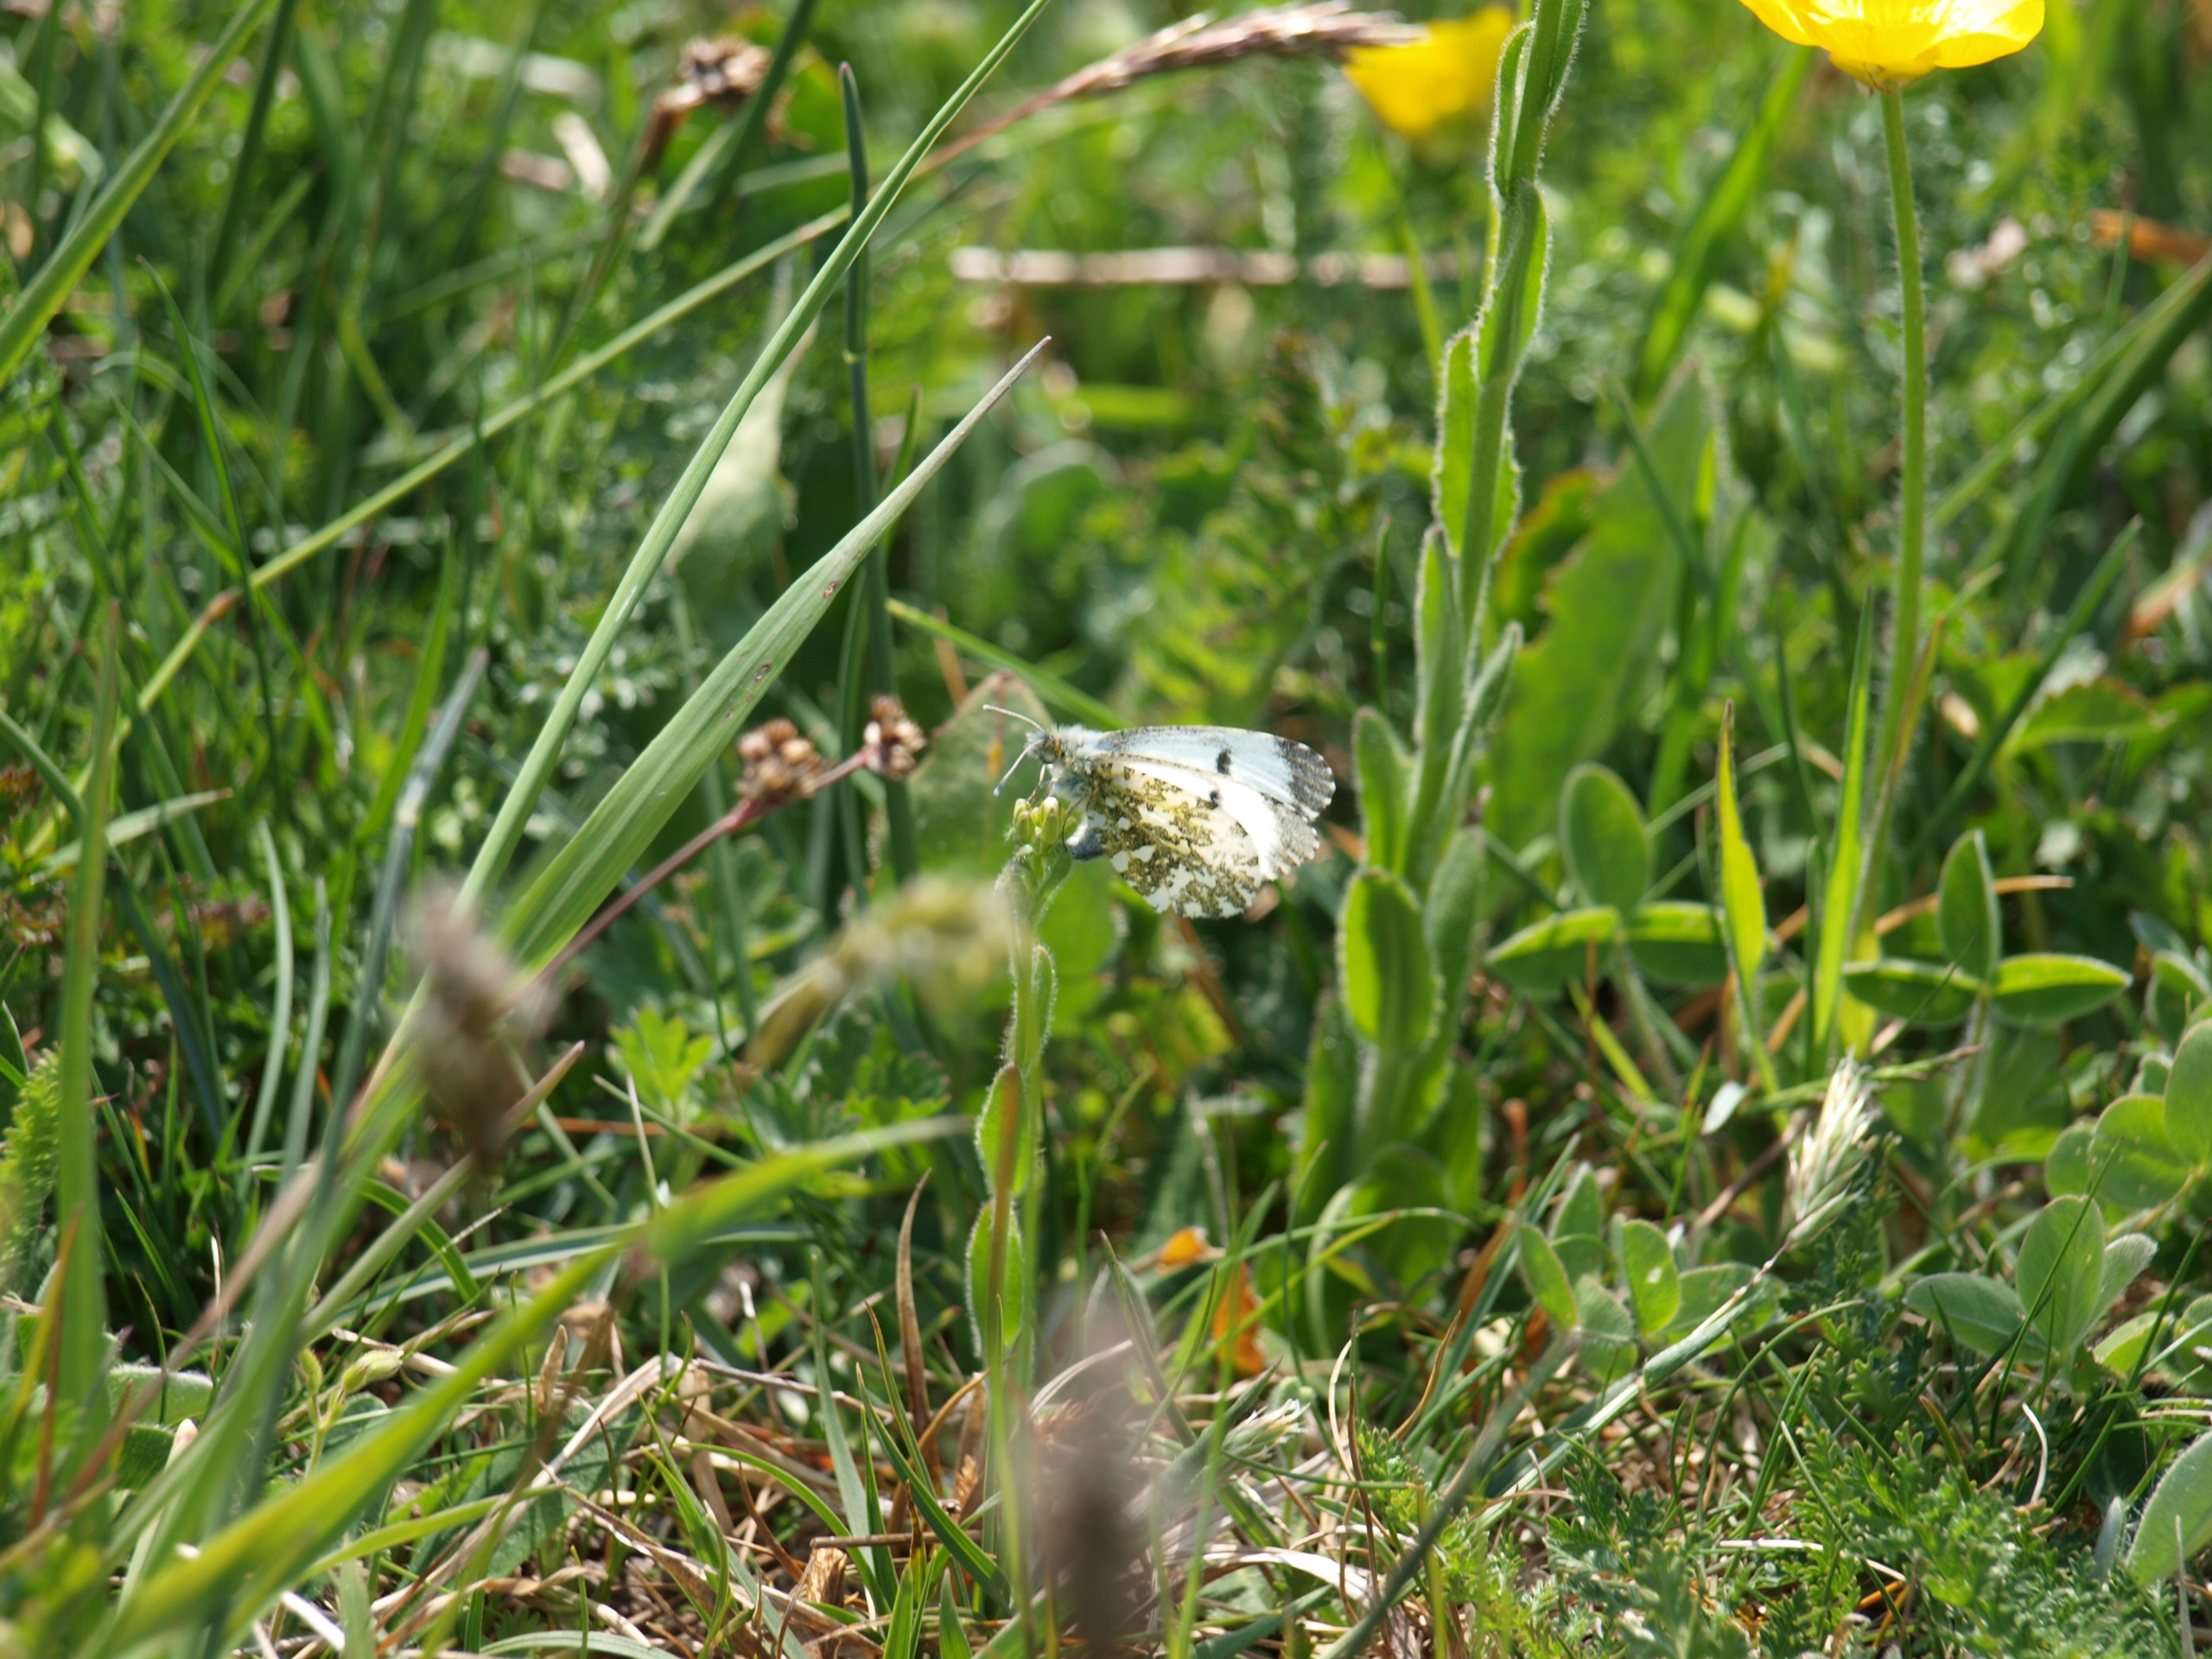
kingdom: Animalia
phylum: Arthropoda
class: Insecta
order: Lepidoptera
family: Pieridae
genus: Anthocharis
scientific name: Anthocharis cardamines
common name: Aurora
